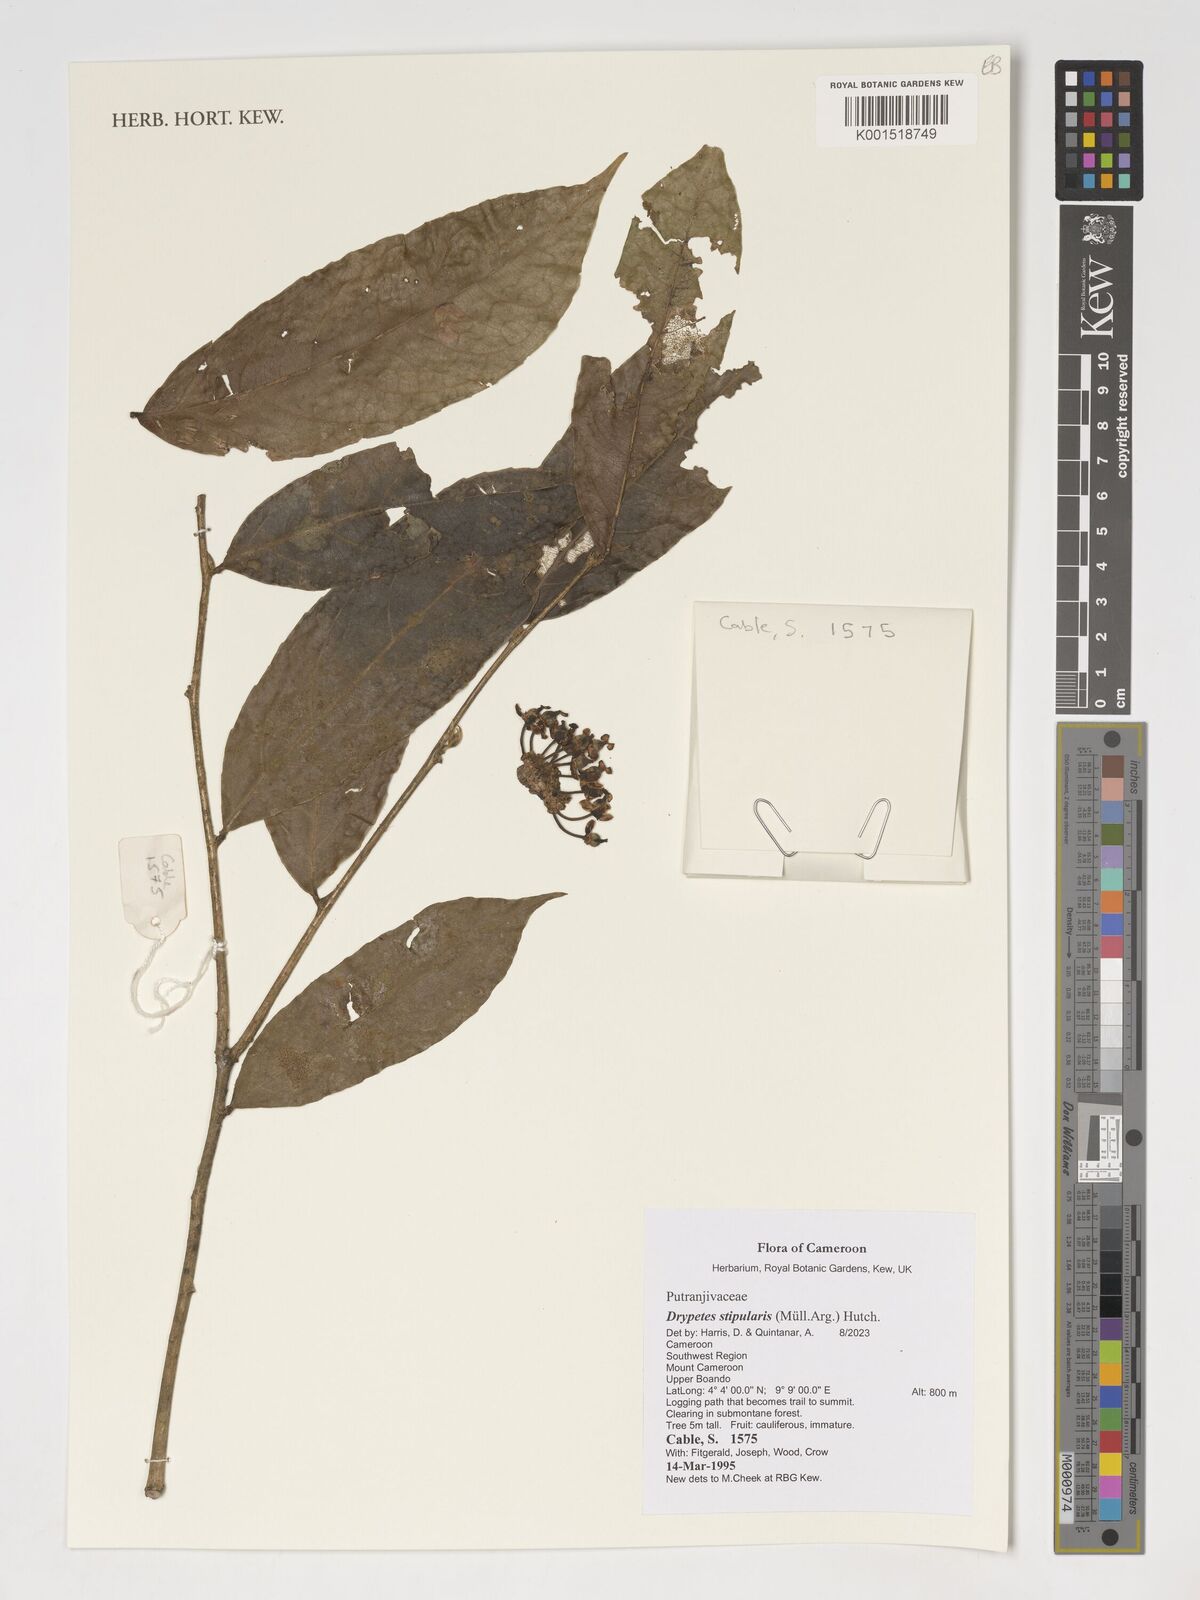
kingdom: Plantae
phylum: Tracheophyta
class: Magnoliopsida
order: Malpighiales
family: Putranjivaceae
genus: Drypetes
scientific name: Drypetes stipularis
